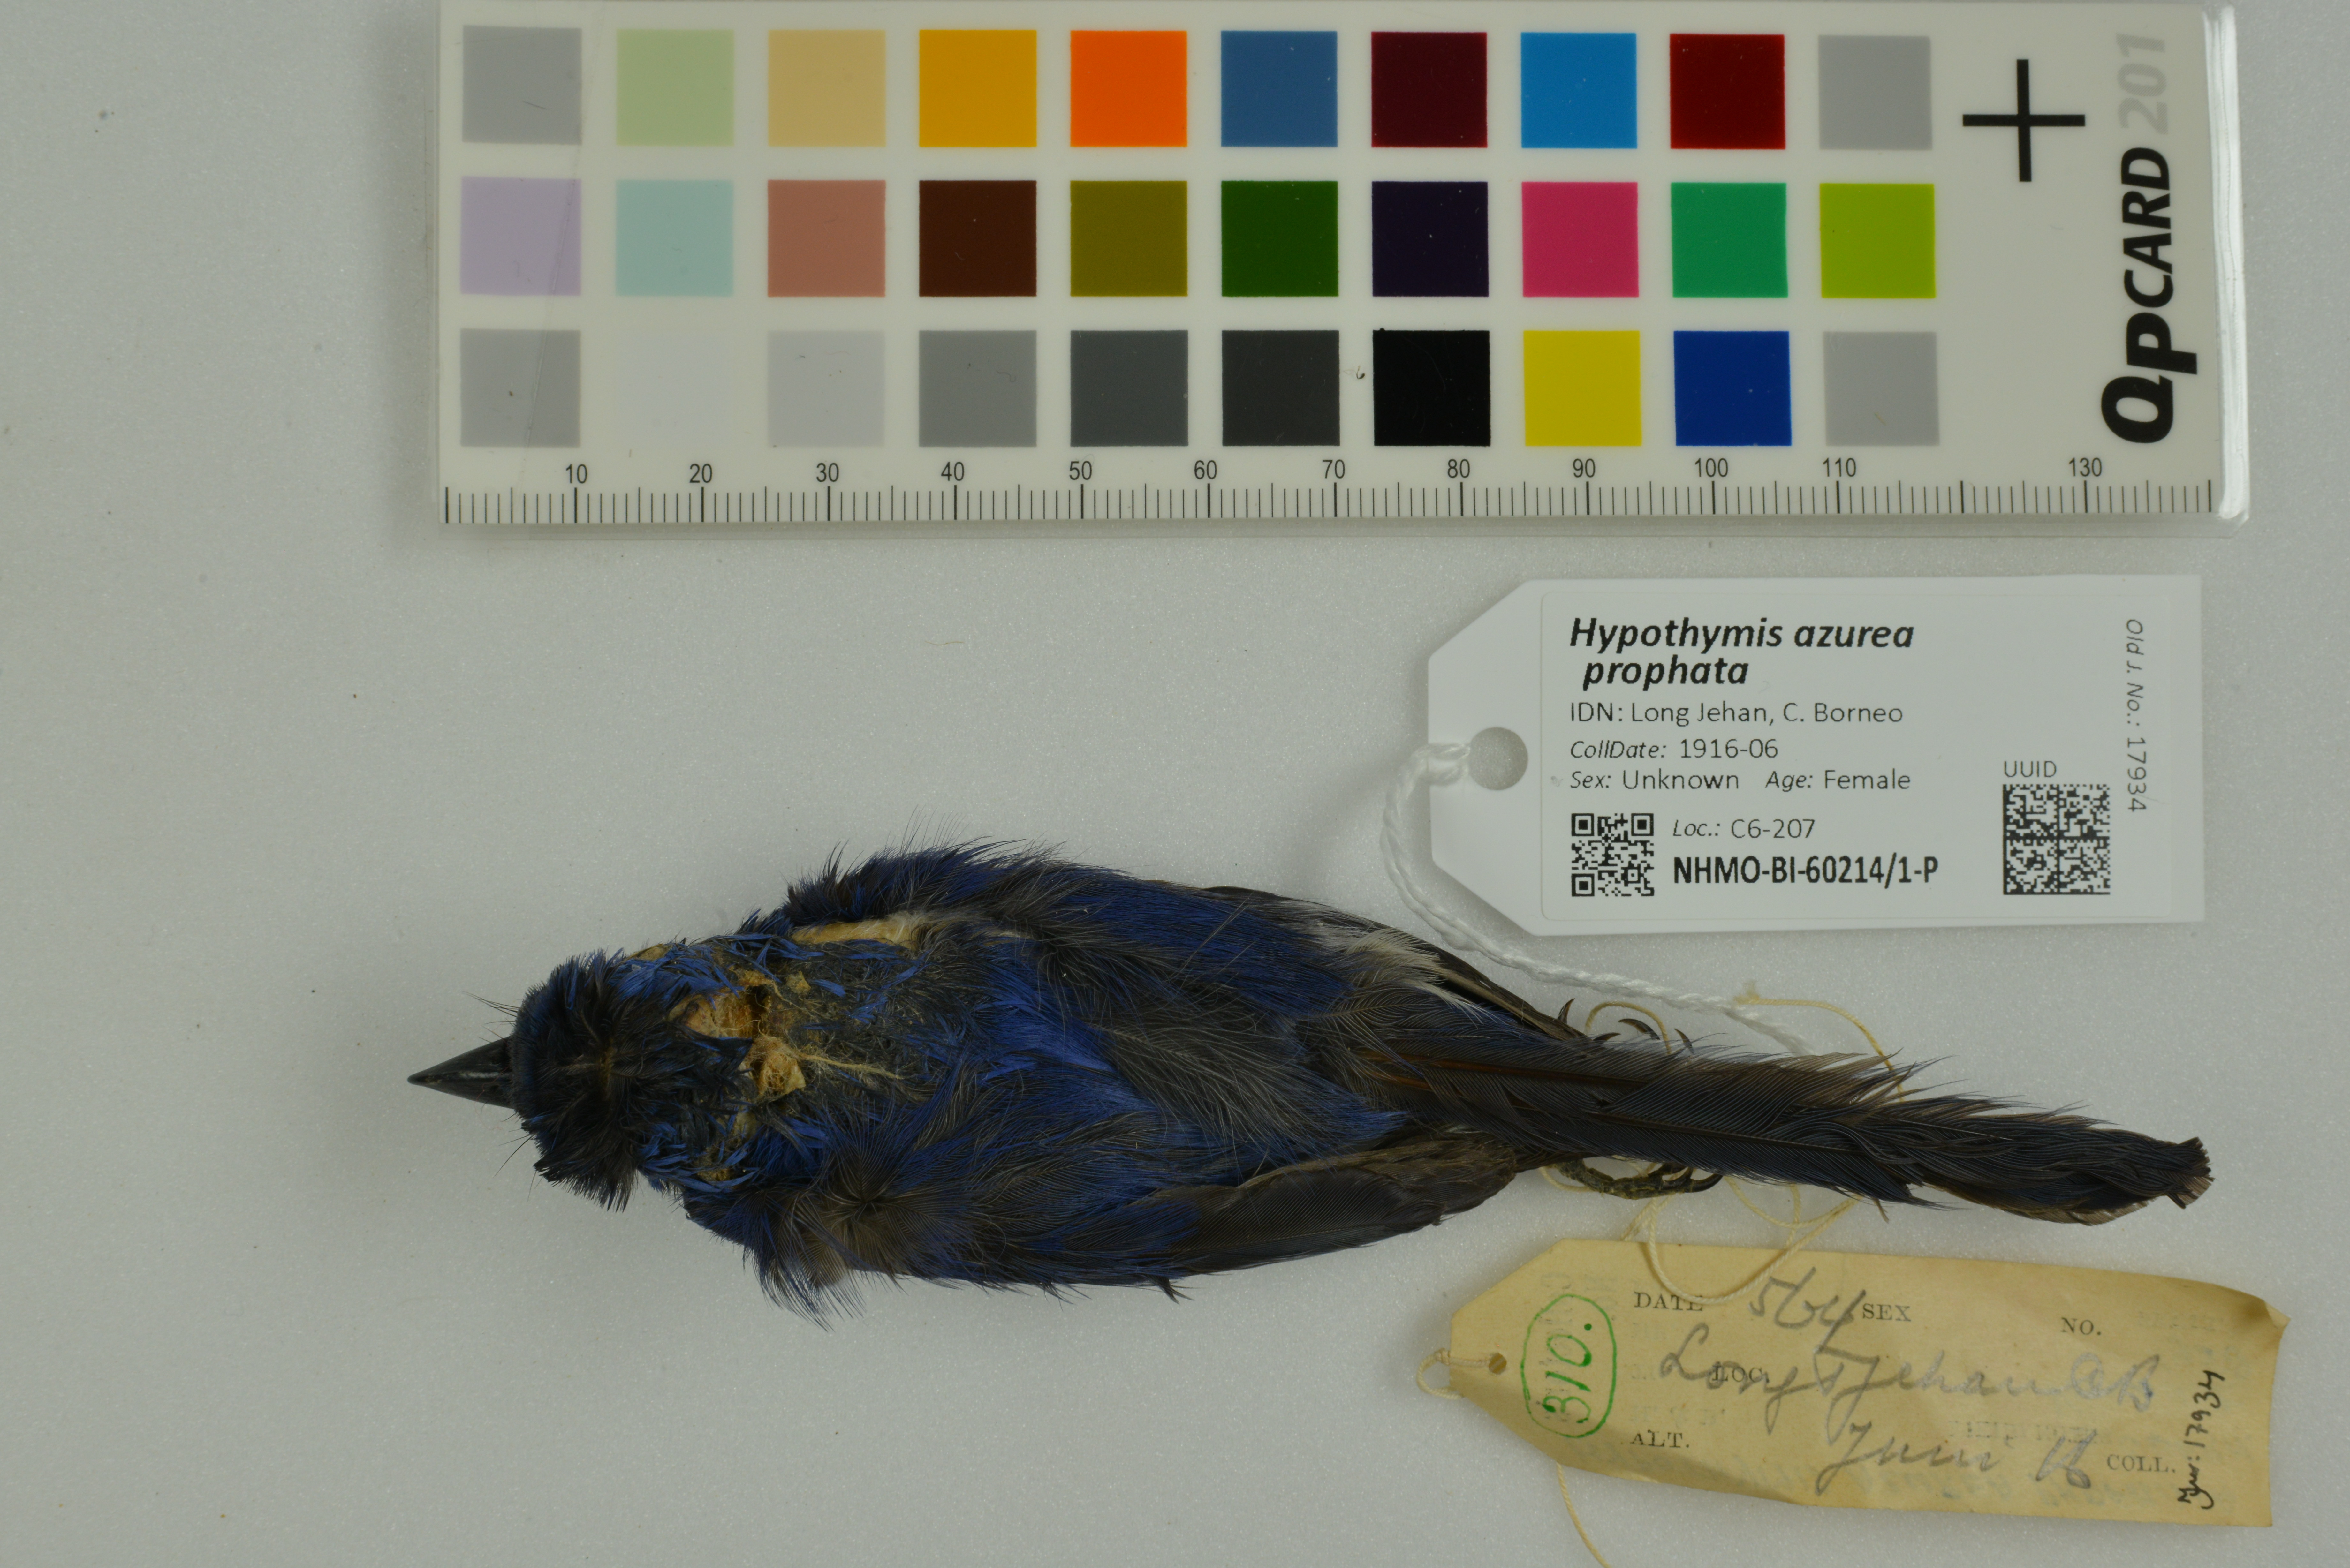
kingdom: Animalia
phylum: Chordata
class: Aves
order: Passeriformes
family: Monarchidae
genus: Hypothymis
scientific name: Hypothymis azurea
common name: Black-naped monarch
